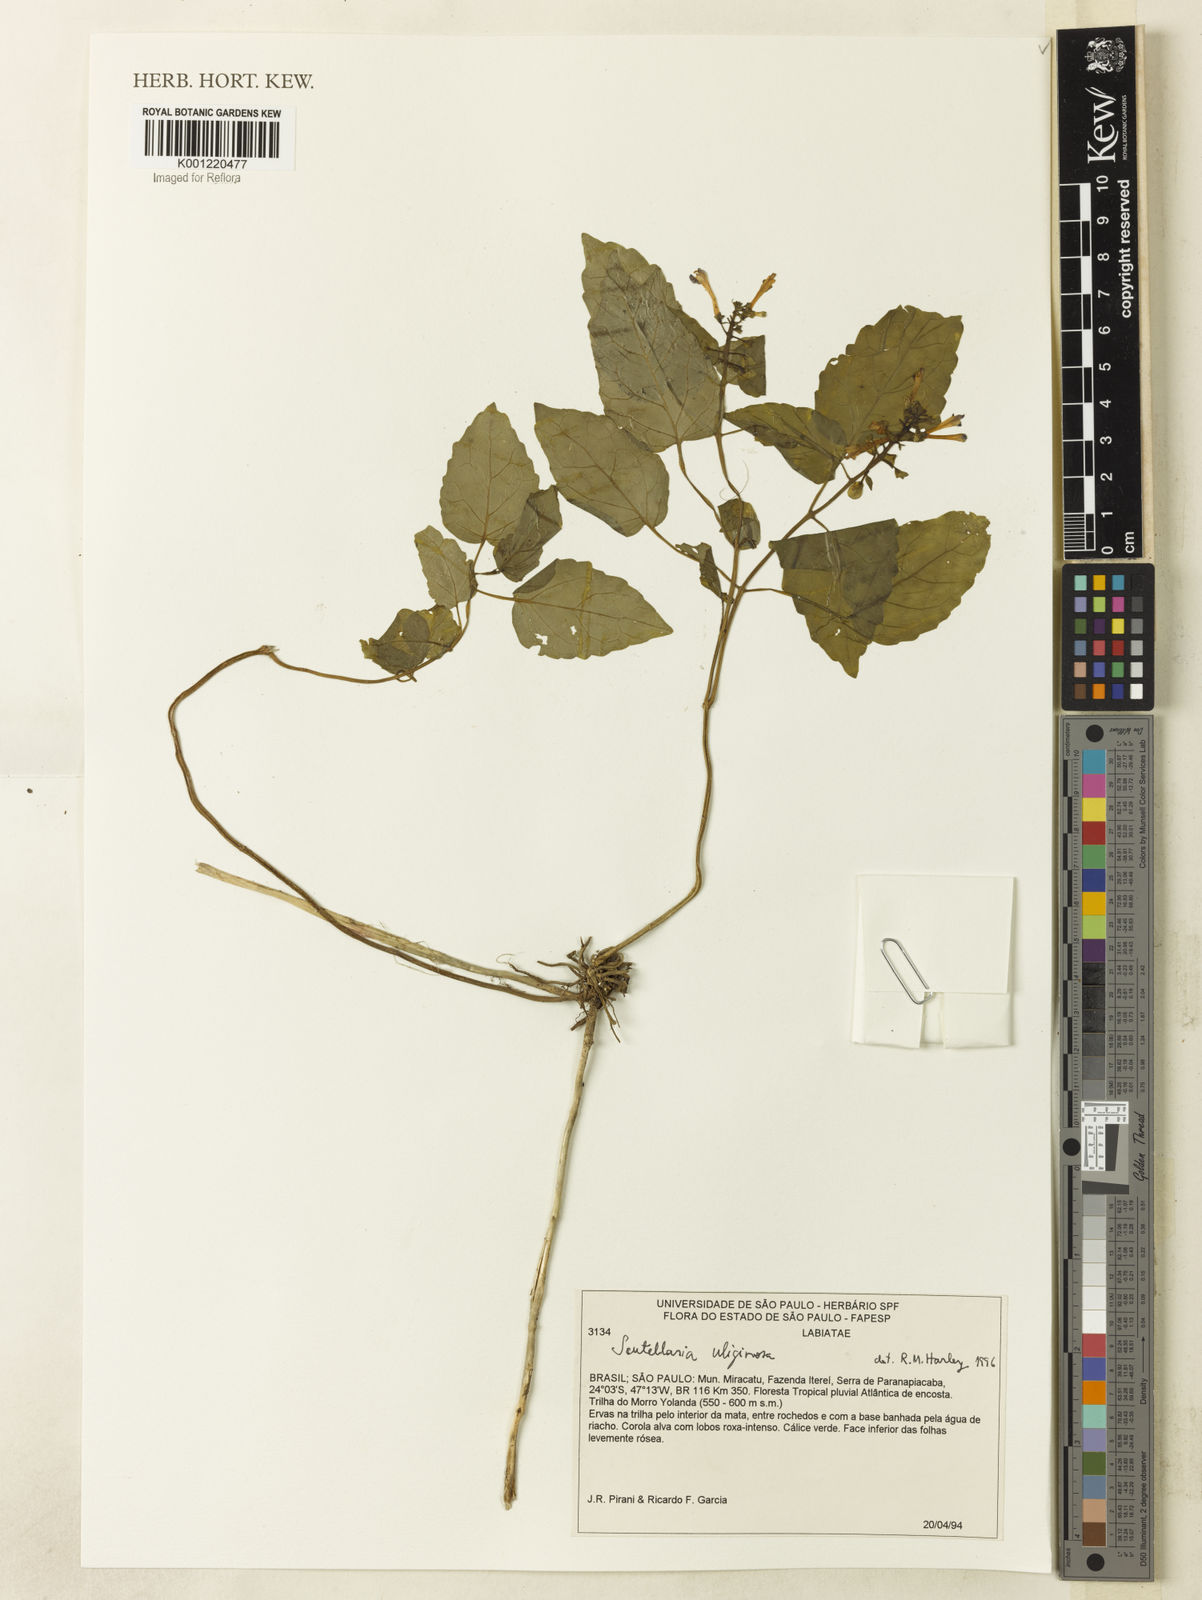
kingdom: Plantae
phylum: Tracheophyta
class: Magnoliopsida
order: Lamiales
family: Lamiaceae
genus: Scutellaria
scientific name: Scutellaria uliginosa
